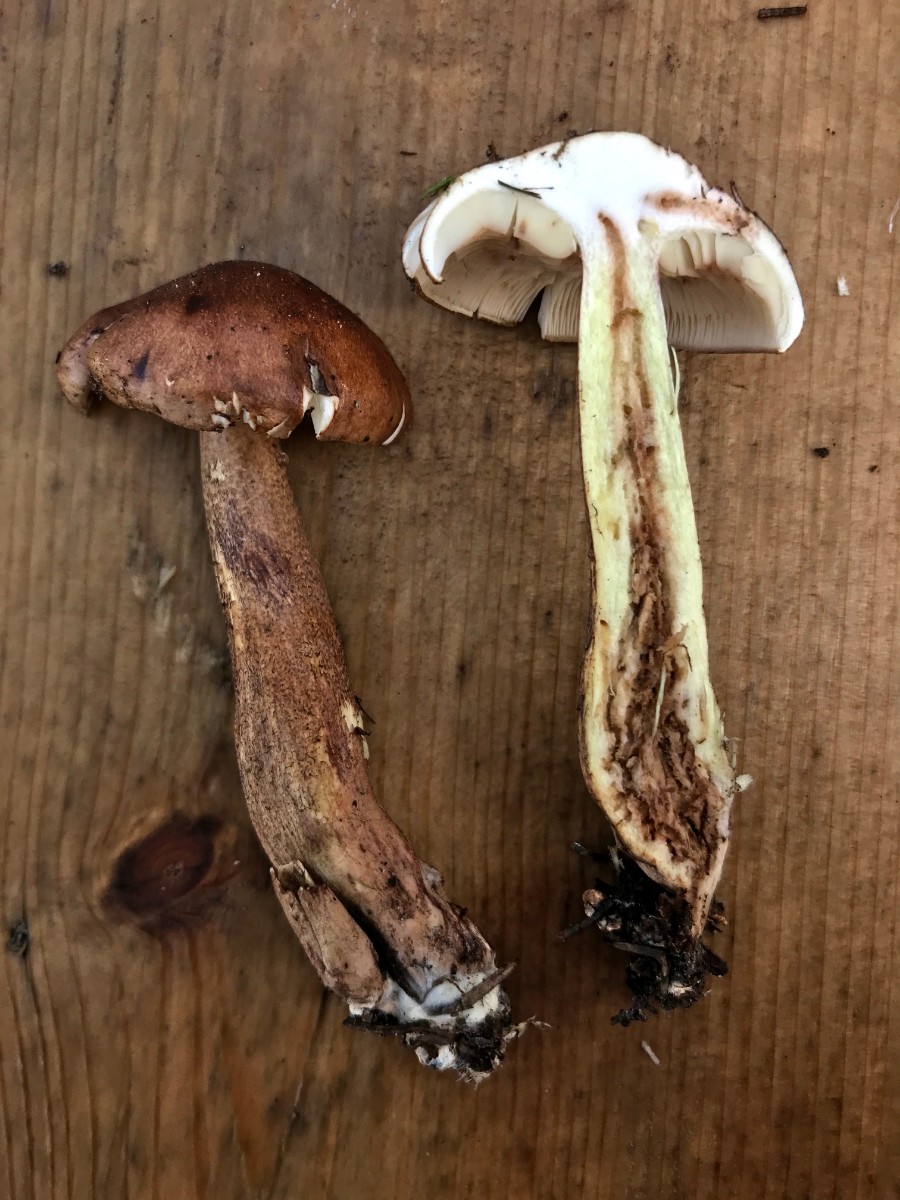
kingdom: Fungi
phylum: Basidiomycota
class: Agaricomycetes
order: Agaricales
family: Tricholomataceae
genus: Tricholoma
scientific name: Tricholoma fulvum
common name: birke-ridderhat
